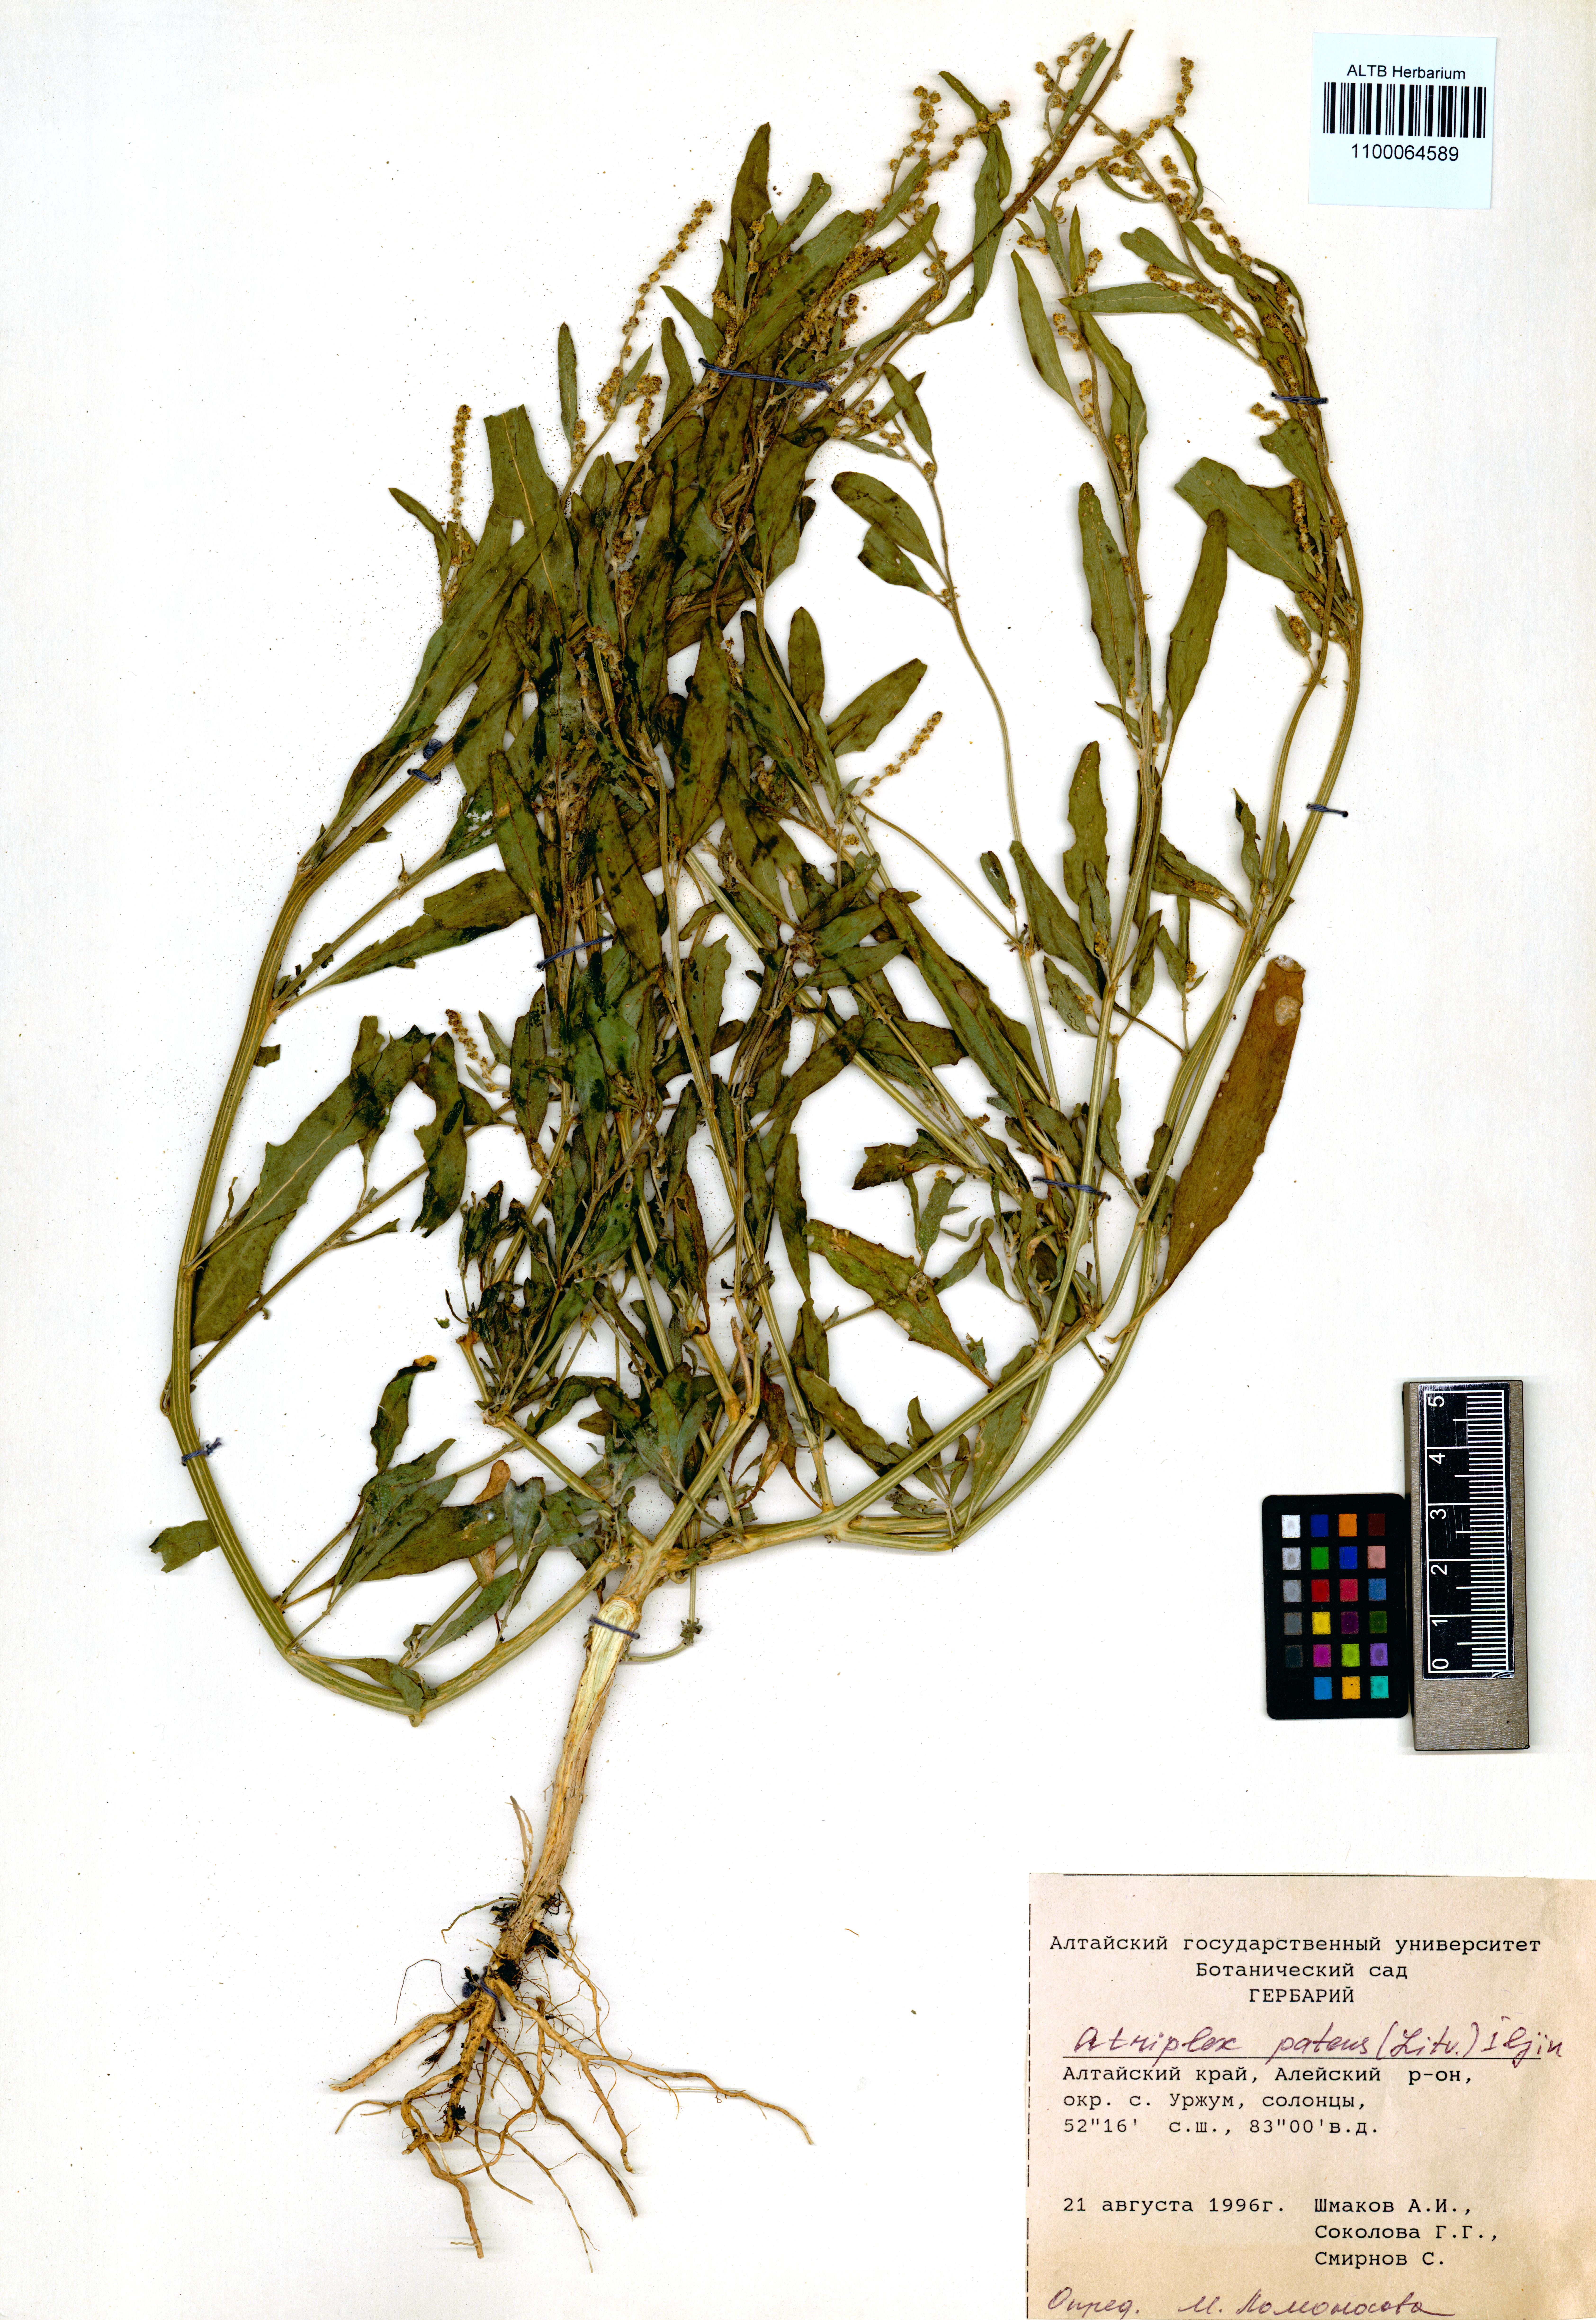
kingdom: Plantae
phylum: Tracheophyta
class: Magnoliopsida
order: Caryophyllales
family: Amaranthaceae
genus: Atriplex
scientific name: Atriplex patens
